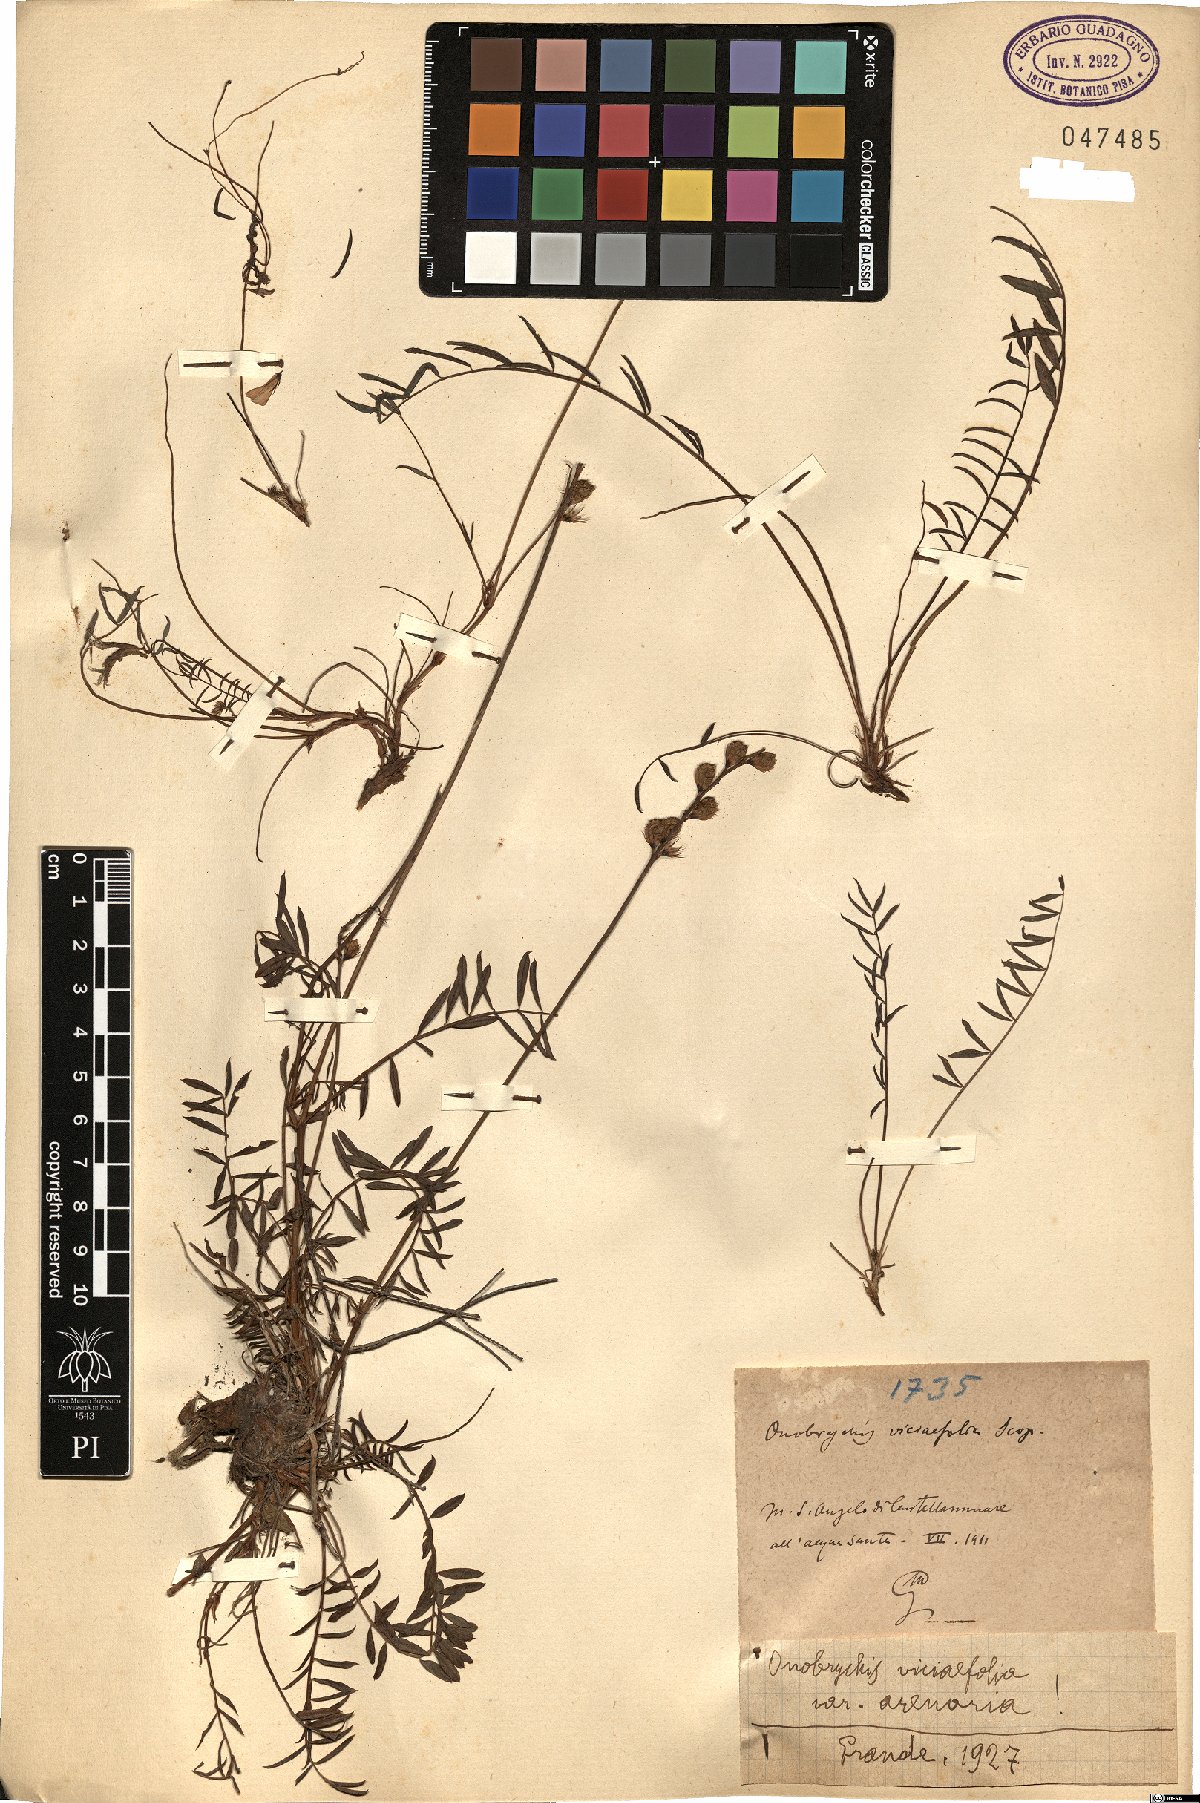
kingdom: Plantae
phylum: Tracheophyta
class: Magnoliopsida
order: Fabales
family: Fabaceae
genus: Onobrychis
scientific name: Onobrychis arenaria
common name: Sand esparcet
